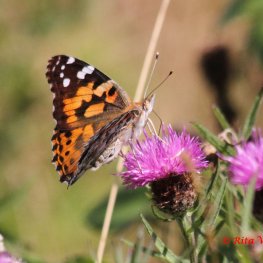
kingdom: Animalia
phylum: Arthropoda
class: Insecta
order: Lepidoptera
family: Nymphalidae
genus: Vanessa
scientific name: Vanessa cardui
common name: Painted Lady
